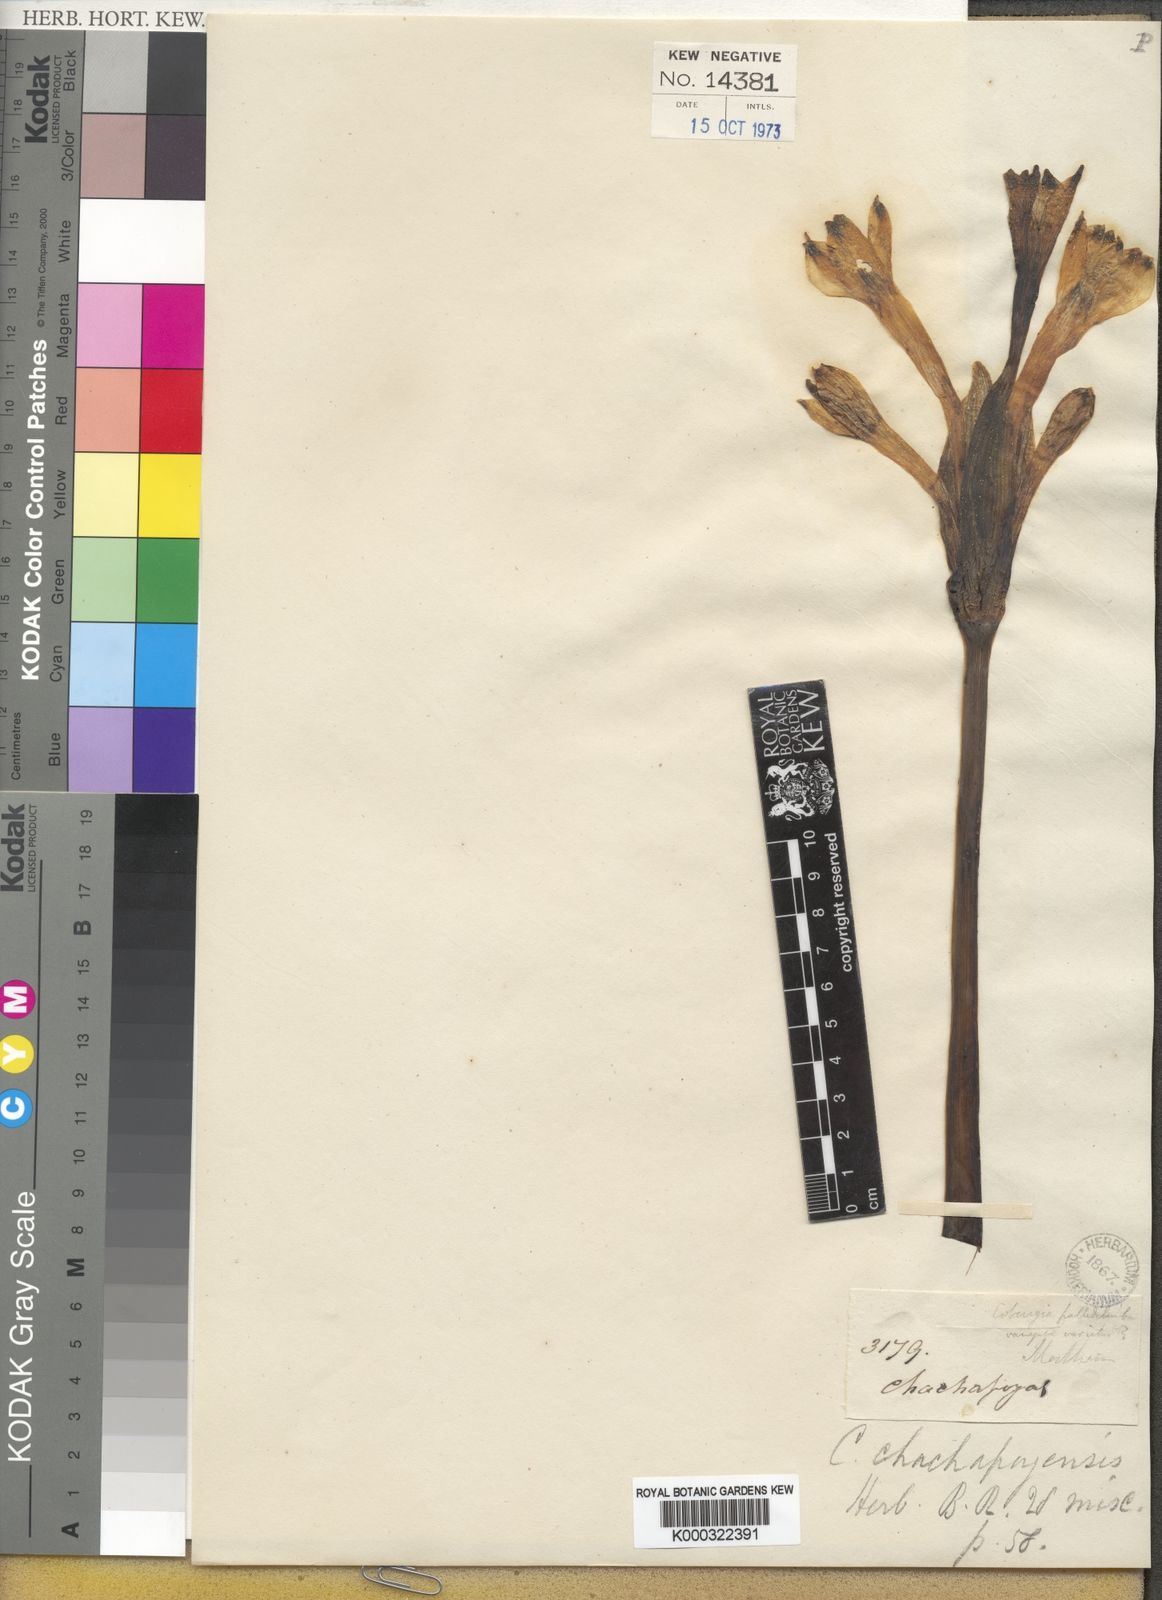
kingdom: Plantae
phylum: Tracheophyta
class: Liliopsida
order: Asparagales
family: Amaryllidaceae
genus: Clinanthus
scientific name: Clinanthus incarnatus
